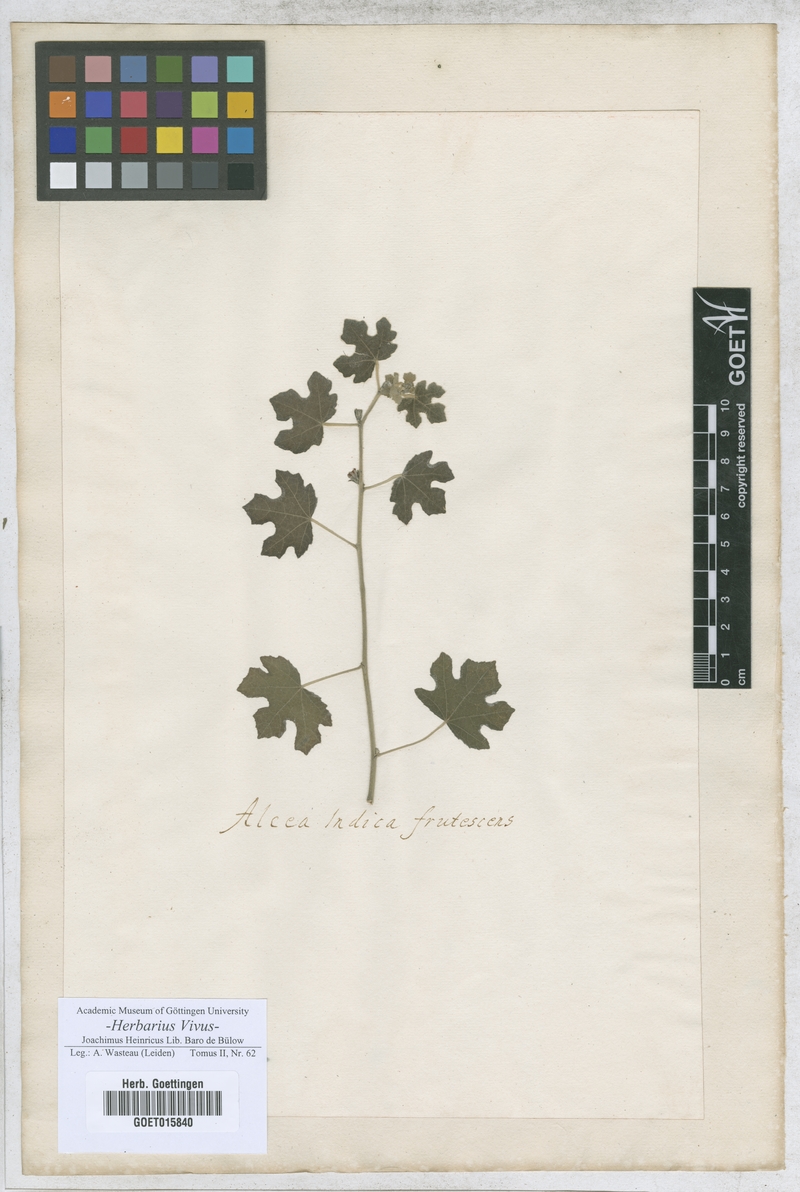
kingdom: Plantae
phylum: Tracheophyta
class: Magnoliopsida
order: Malvales
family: Malvaceae
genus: Alcea
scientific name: Alcea
